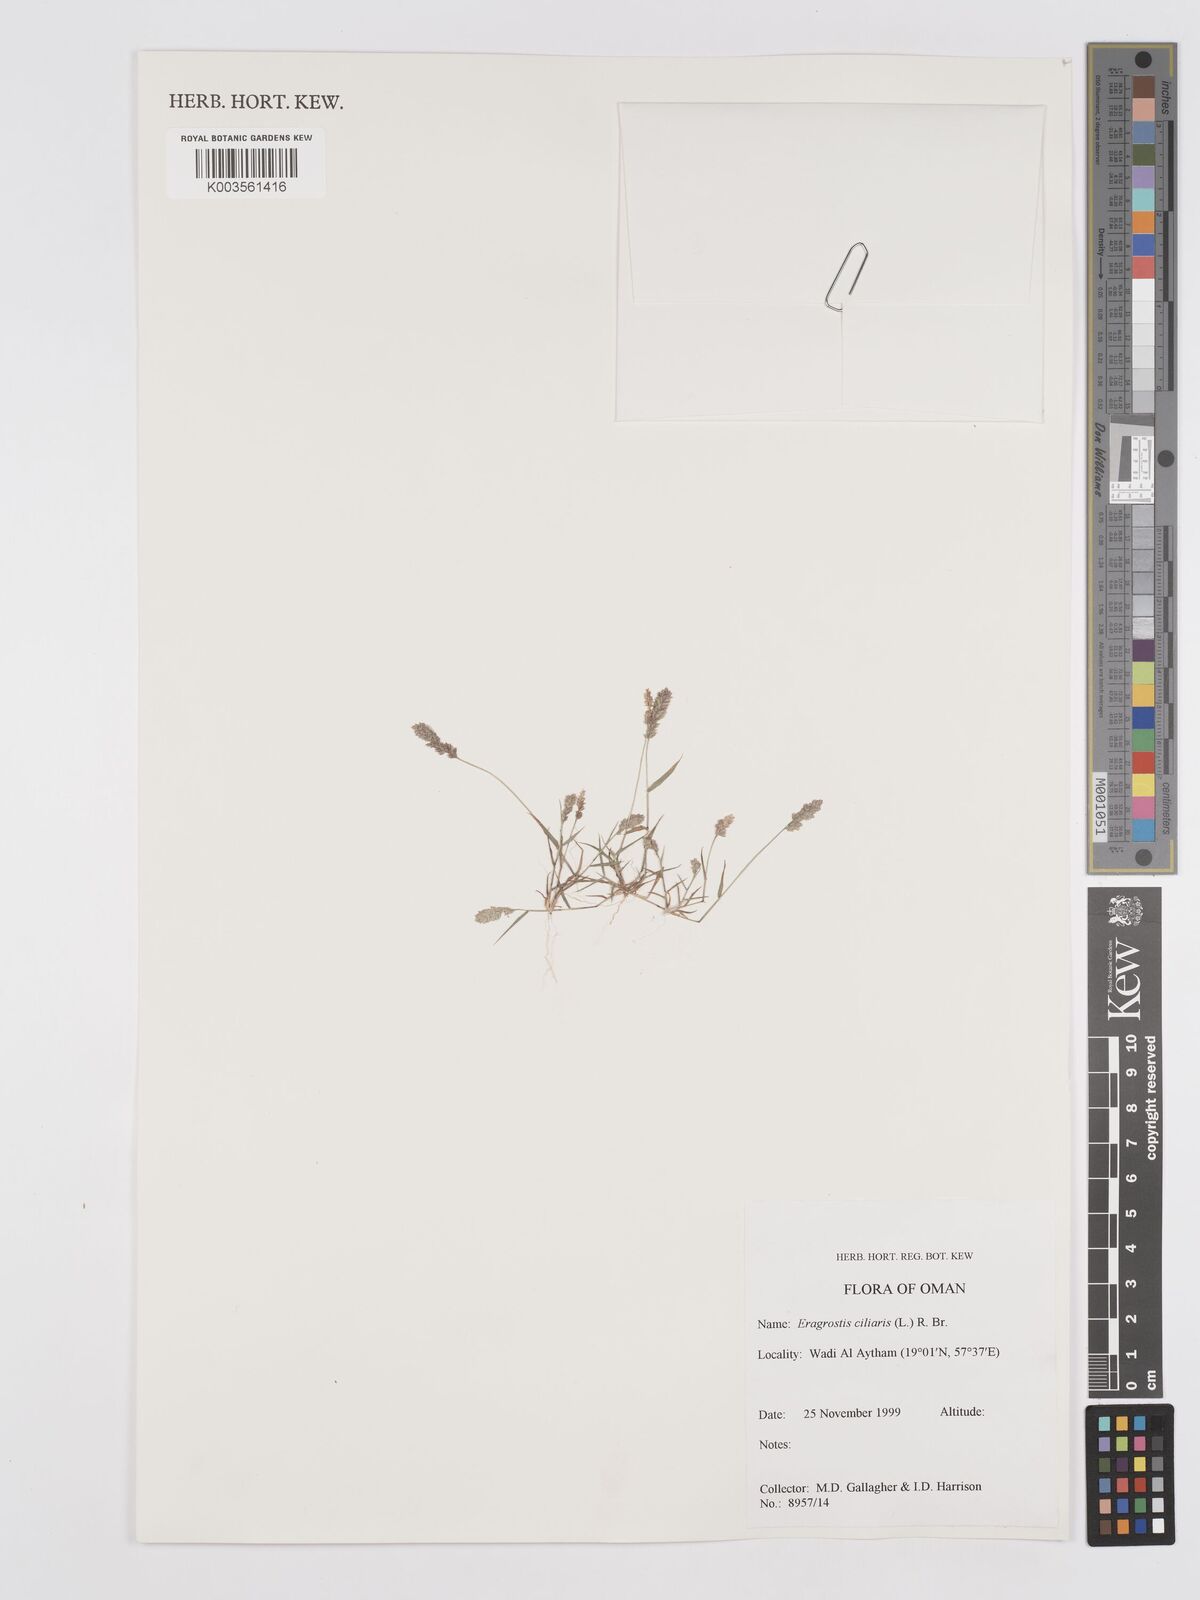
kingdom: Plantae
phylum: Tracheophyta
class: Liliopsida
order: Poales
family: Poaceae
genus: Eragrostis
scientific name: Eragrostis ciliaris
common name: Gophertail lovegrass
